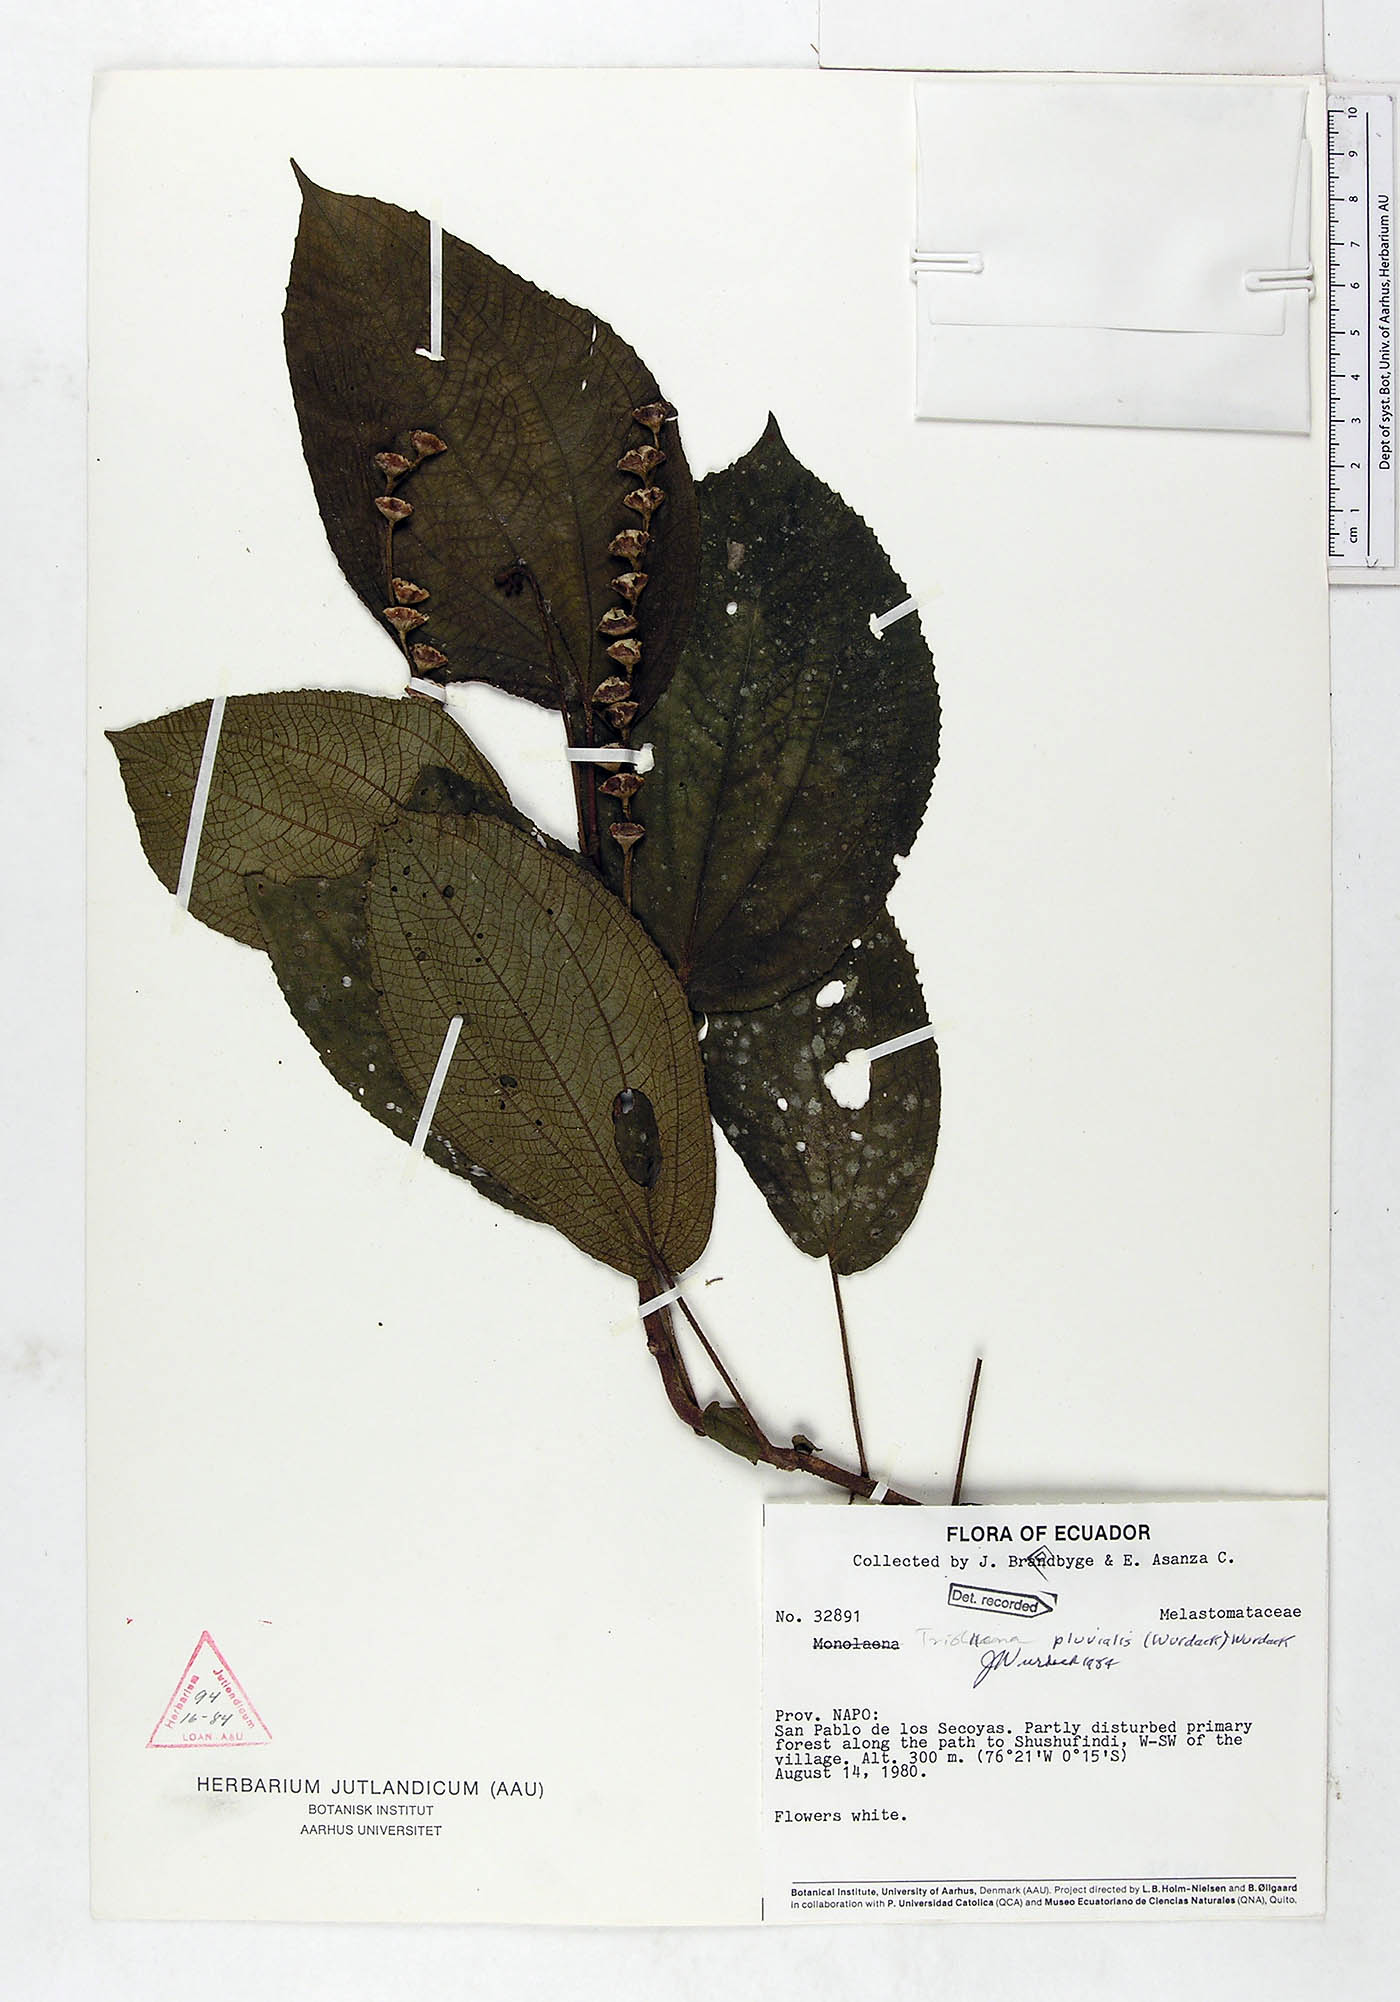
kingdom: Plantae
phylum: Tracheophyta
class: Magnoliopsida
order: Myrtales
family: Melastomataceae
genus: Triolena
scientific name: Triolena pluvialis
